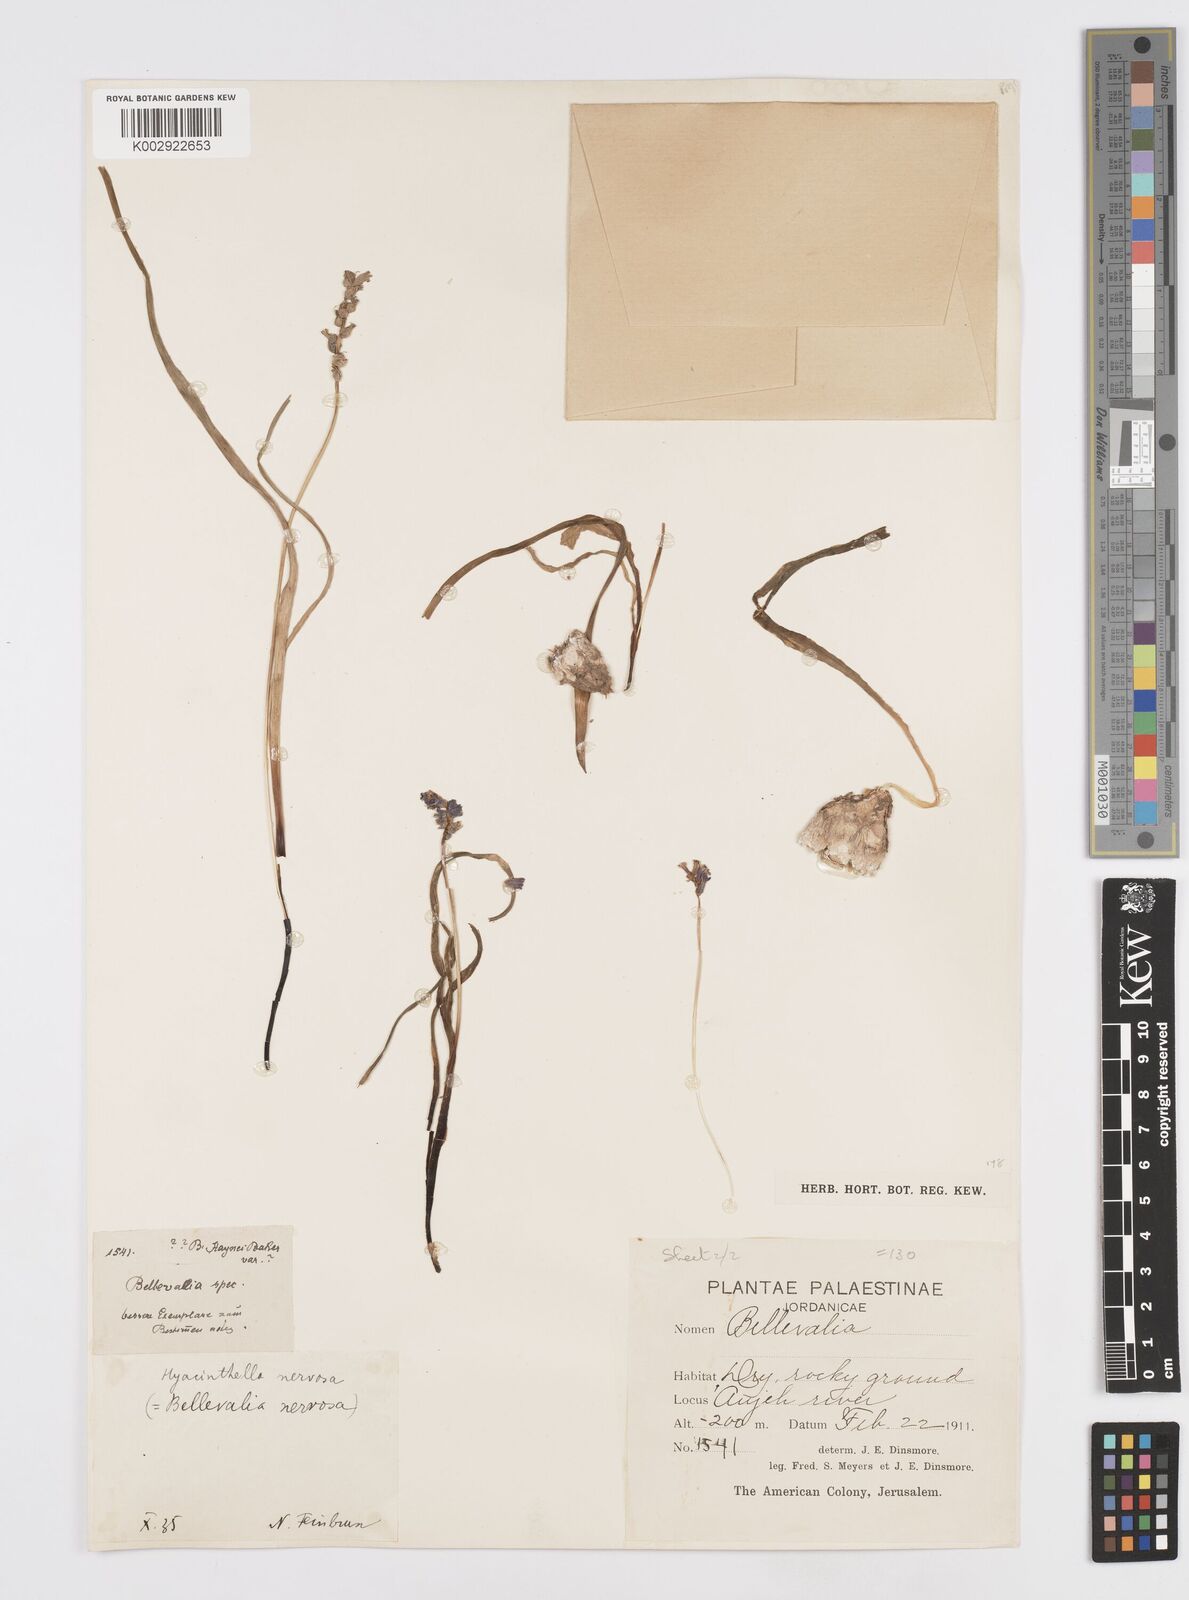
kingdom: Plantae
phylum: Tracheophyta
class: Liliopsida
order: Asparagales
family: Asparagaceae
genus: Hyacinthella
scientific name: Hyacinthella nervosa
